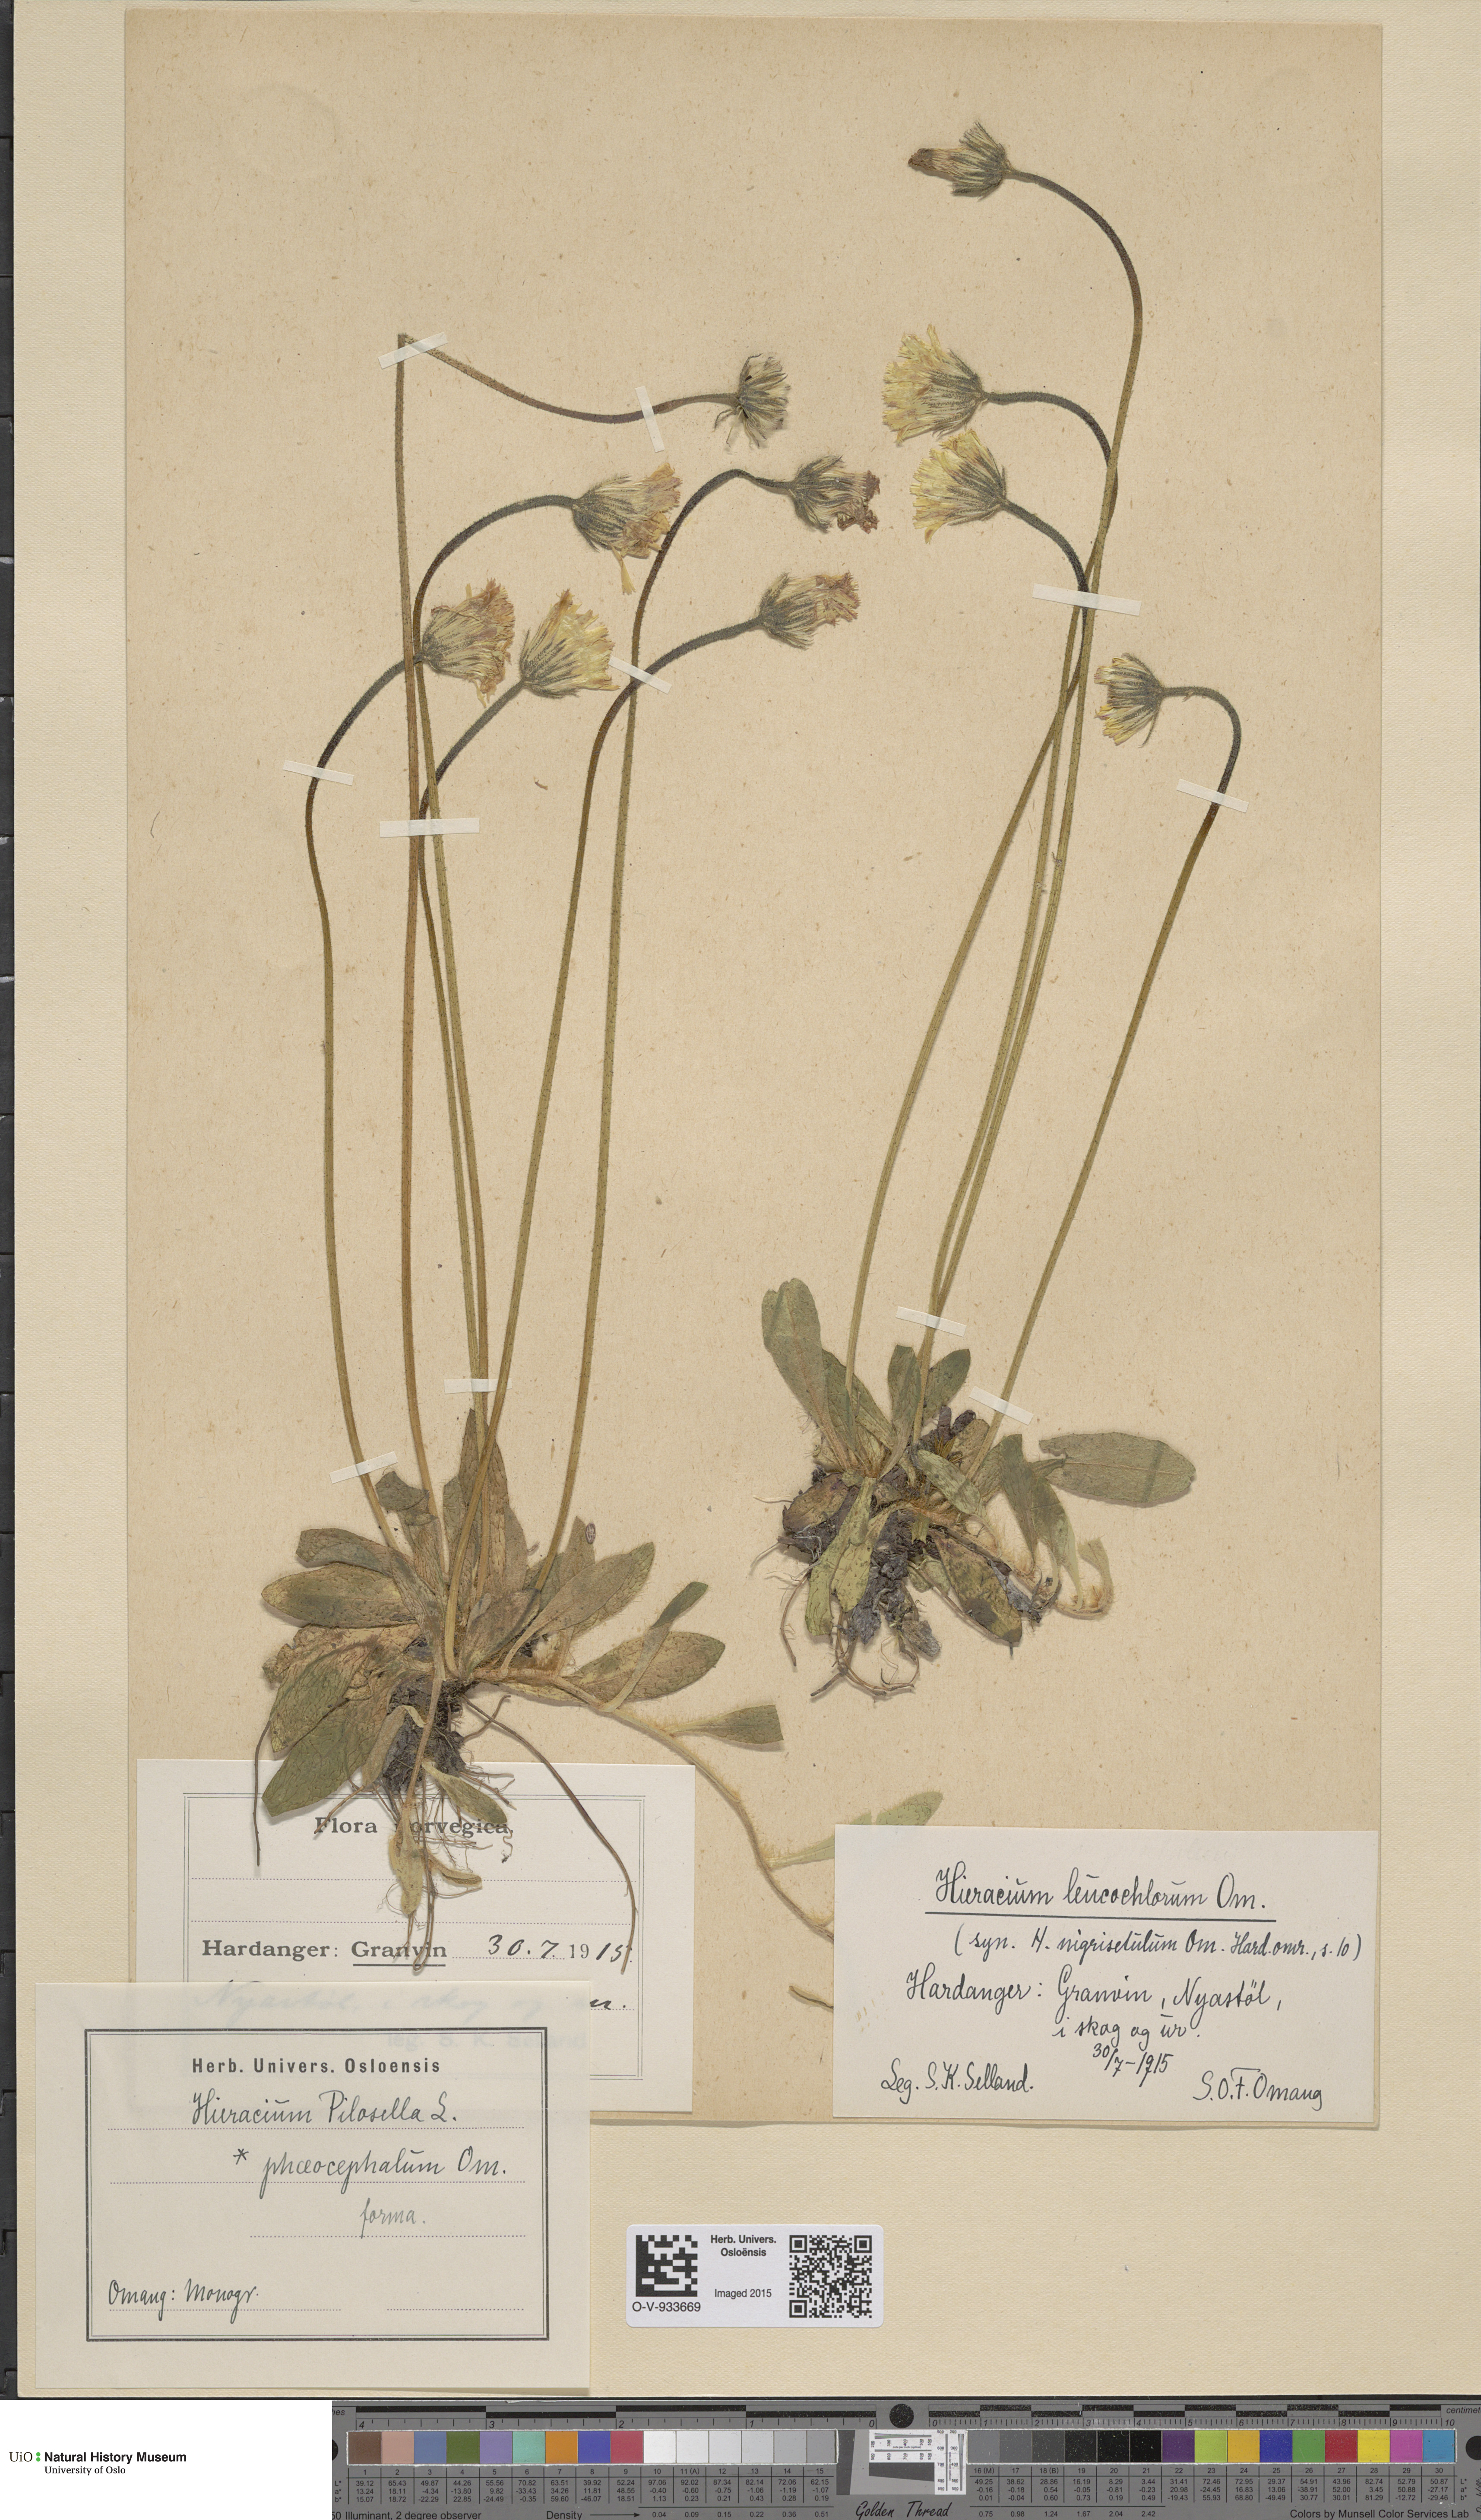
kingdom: Plantae
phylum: Tracheophyta
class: Magnoliopsida
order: Asterales
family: Asteraceae
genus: Pilosella
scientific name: Pilosella officinarum
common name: Mouse-ear hawkweed
